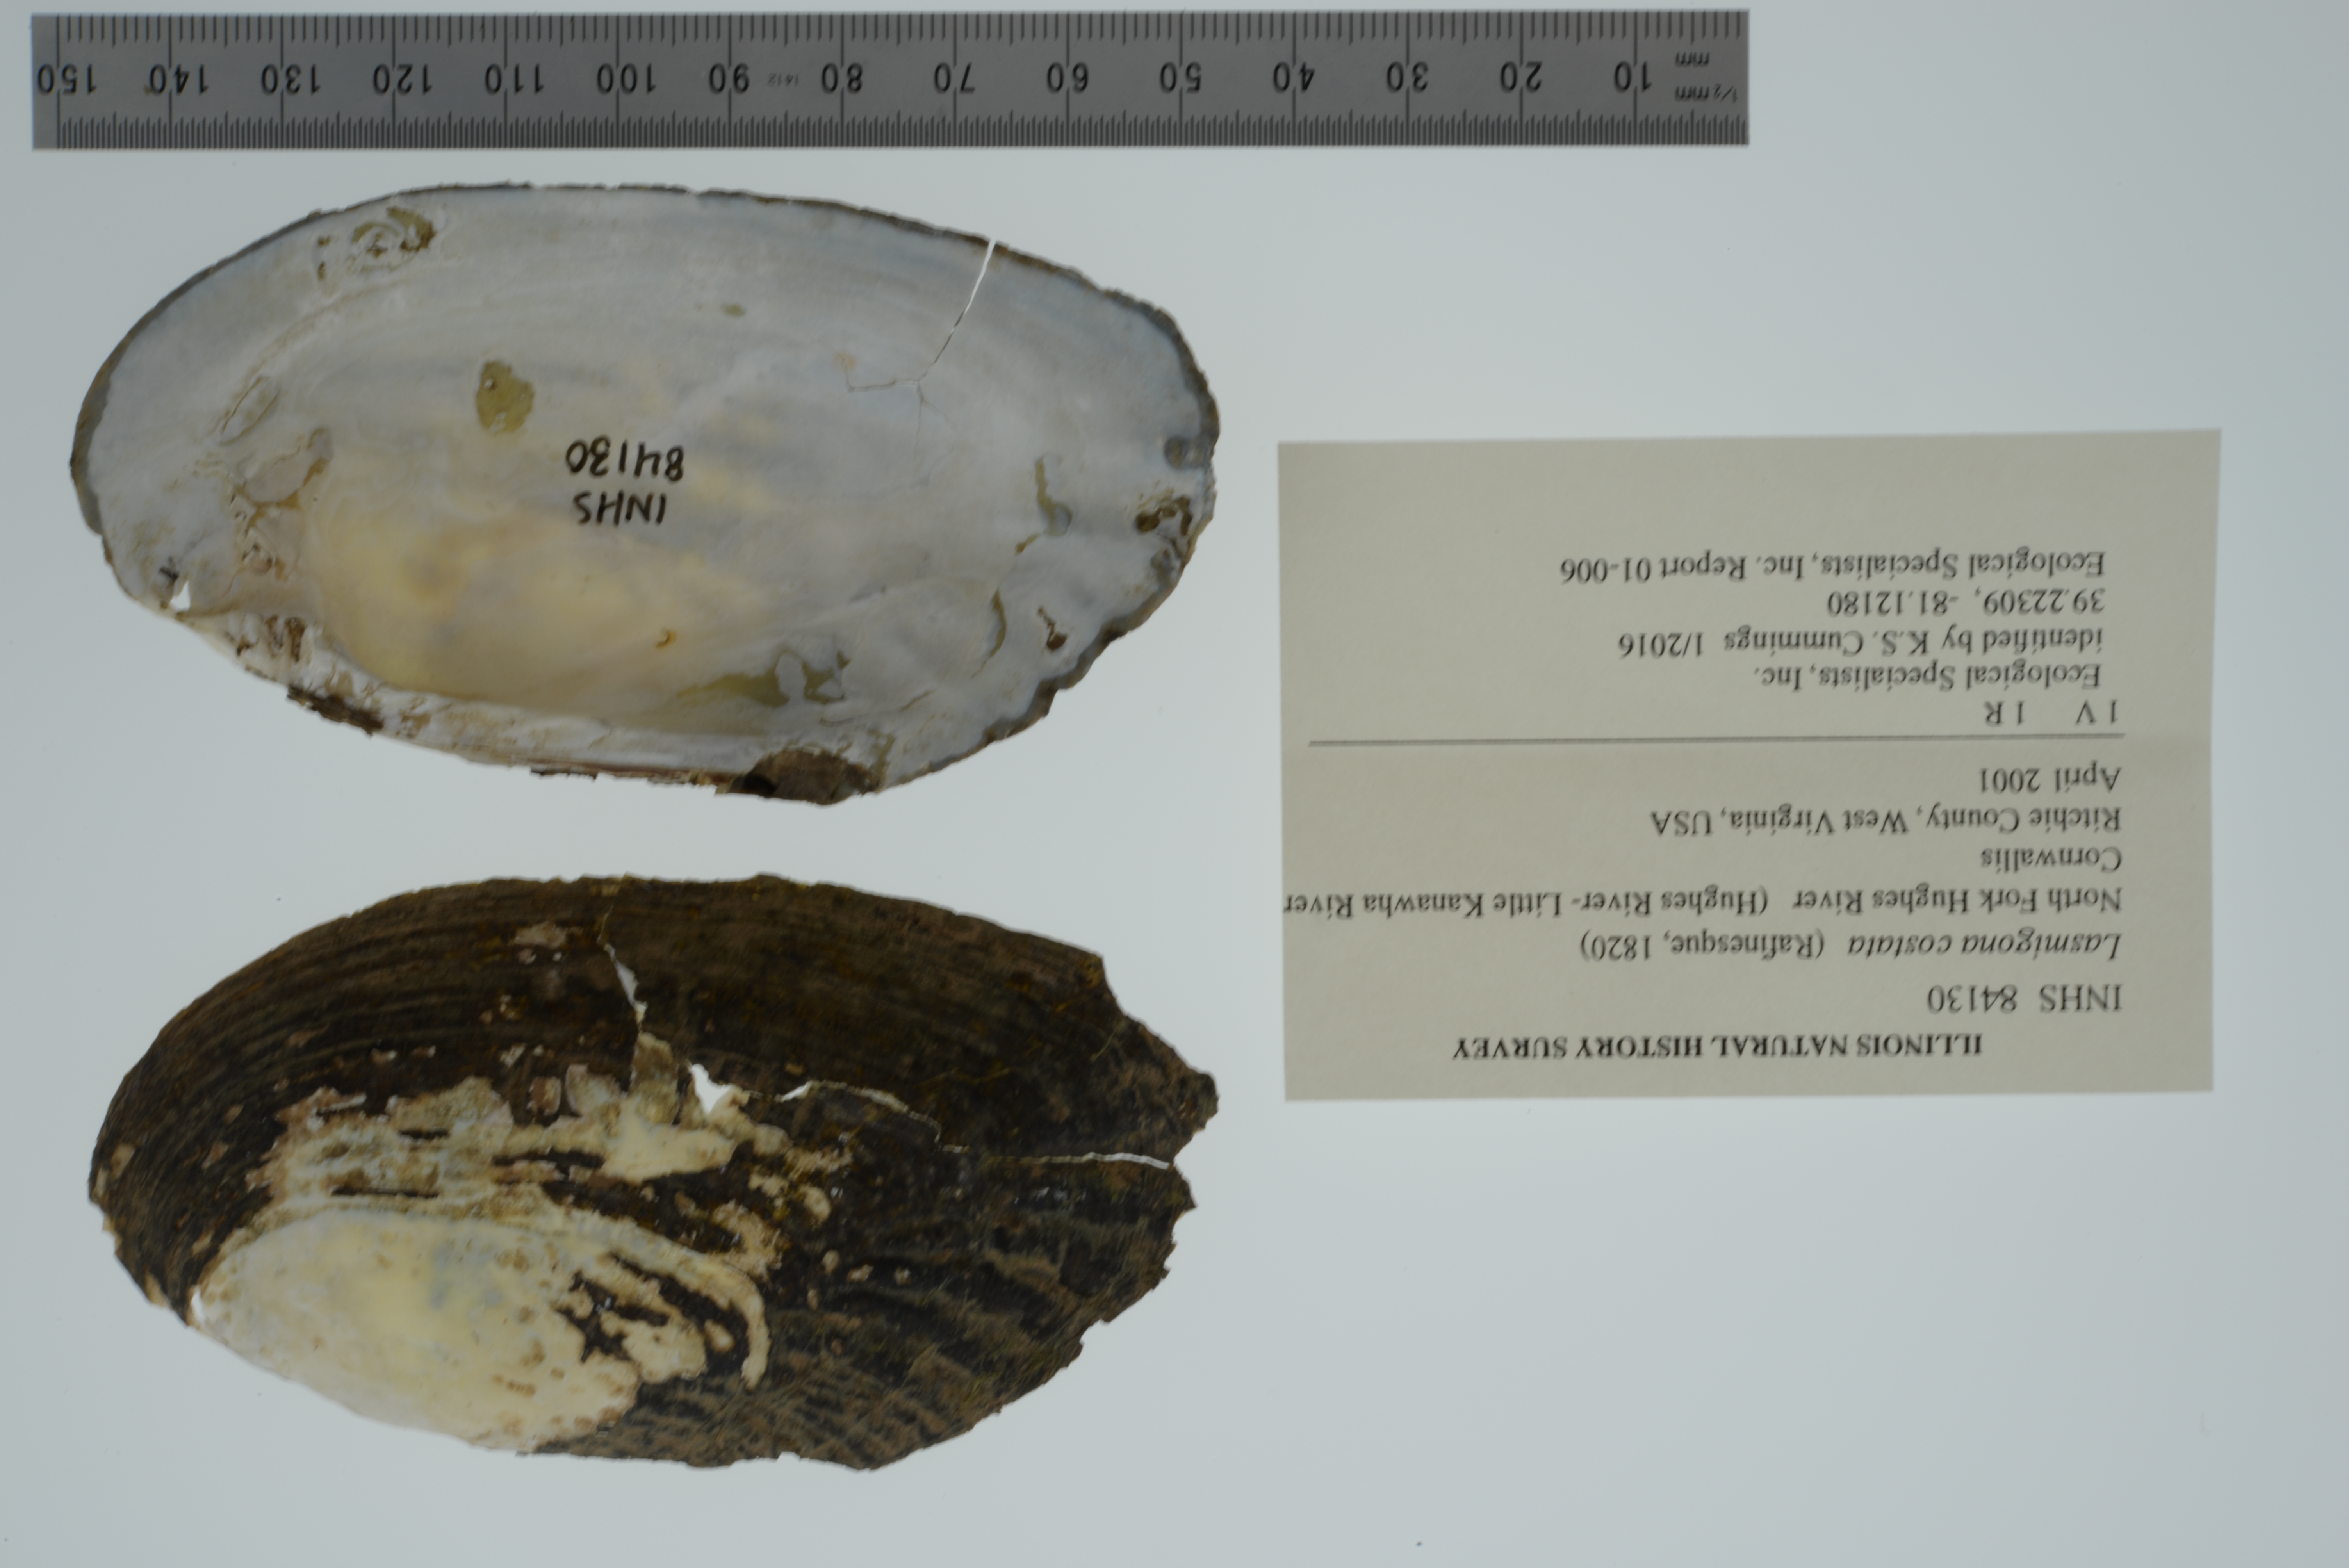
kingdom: Animalia
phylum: Mollusca
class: Bivalvia
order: Unionida
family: Unionidae
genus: Lasmigona
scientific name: Lasmigona costata
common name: Flutedshell
